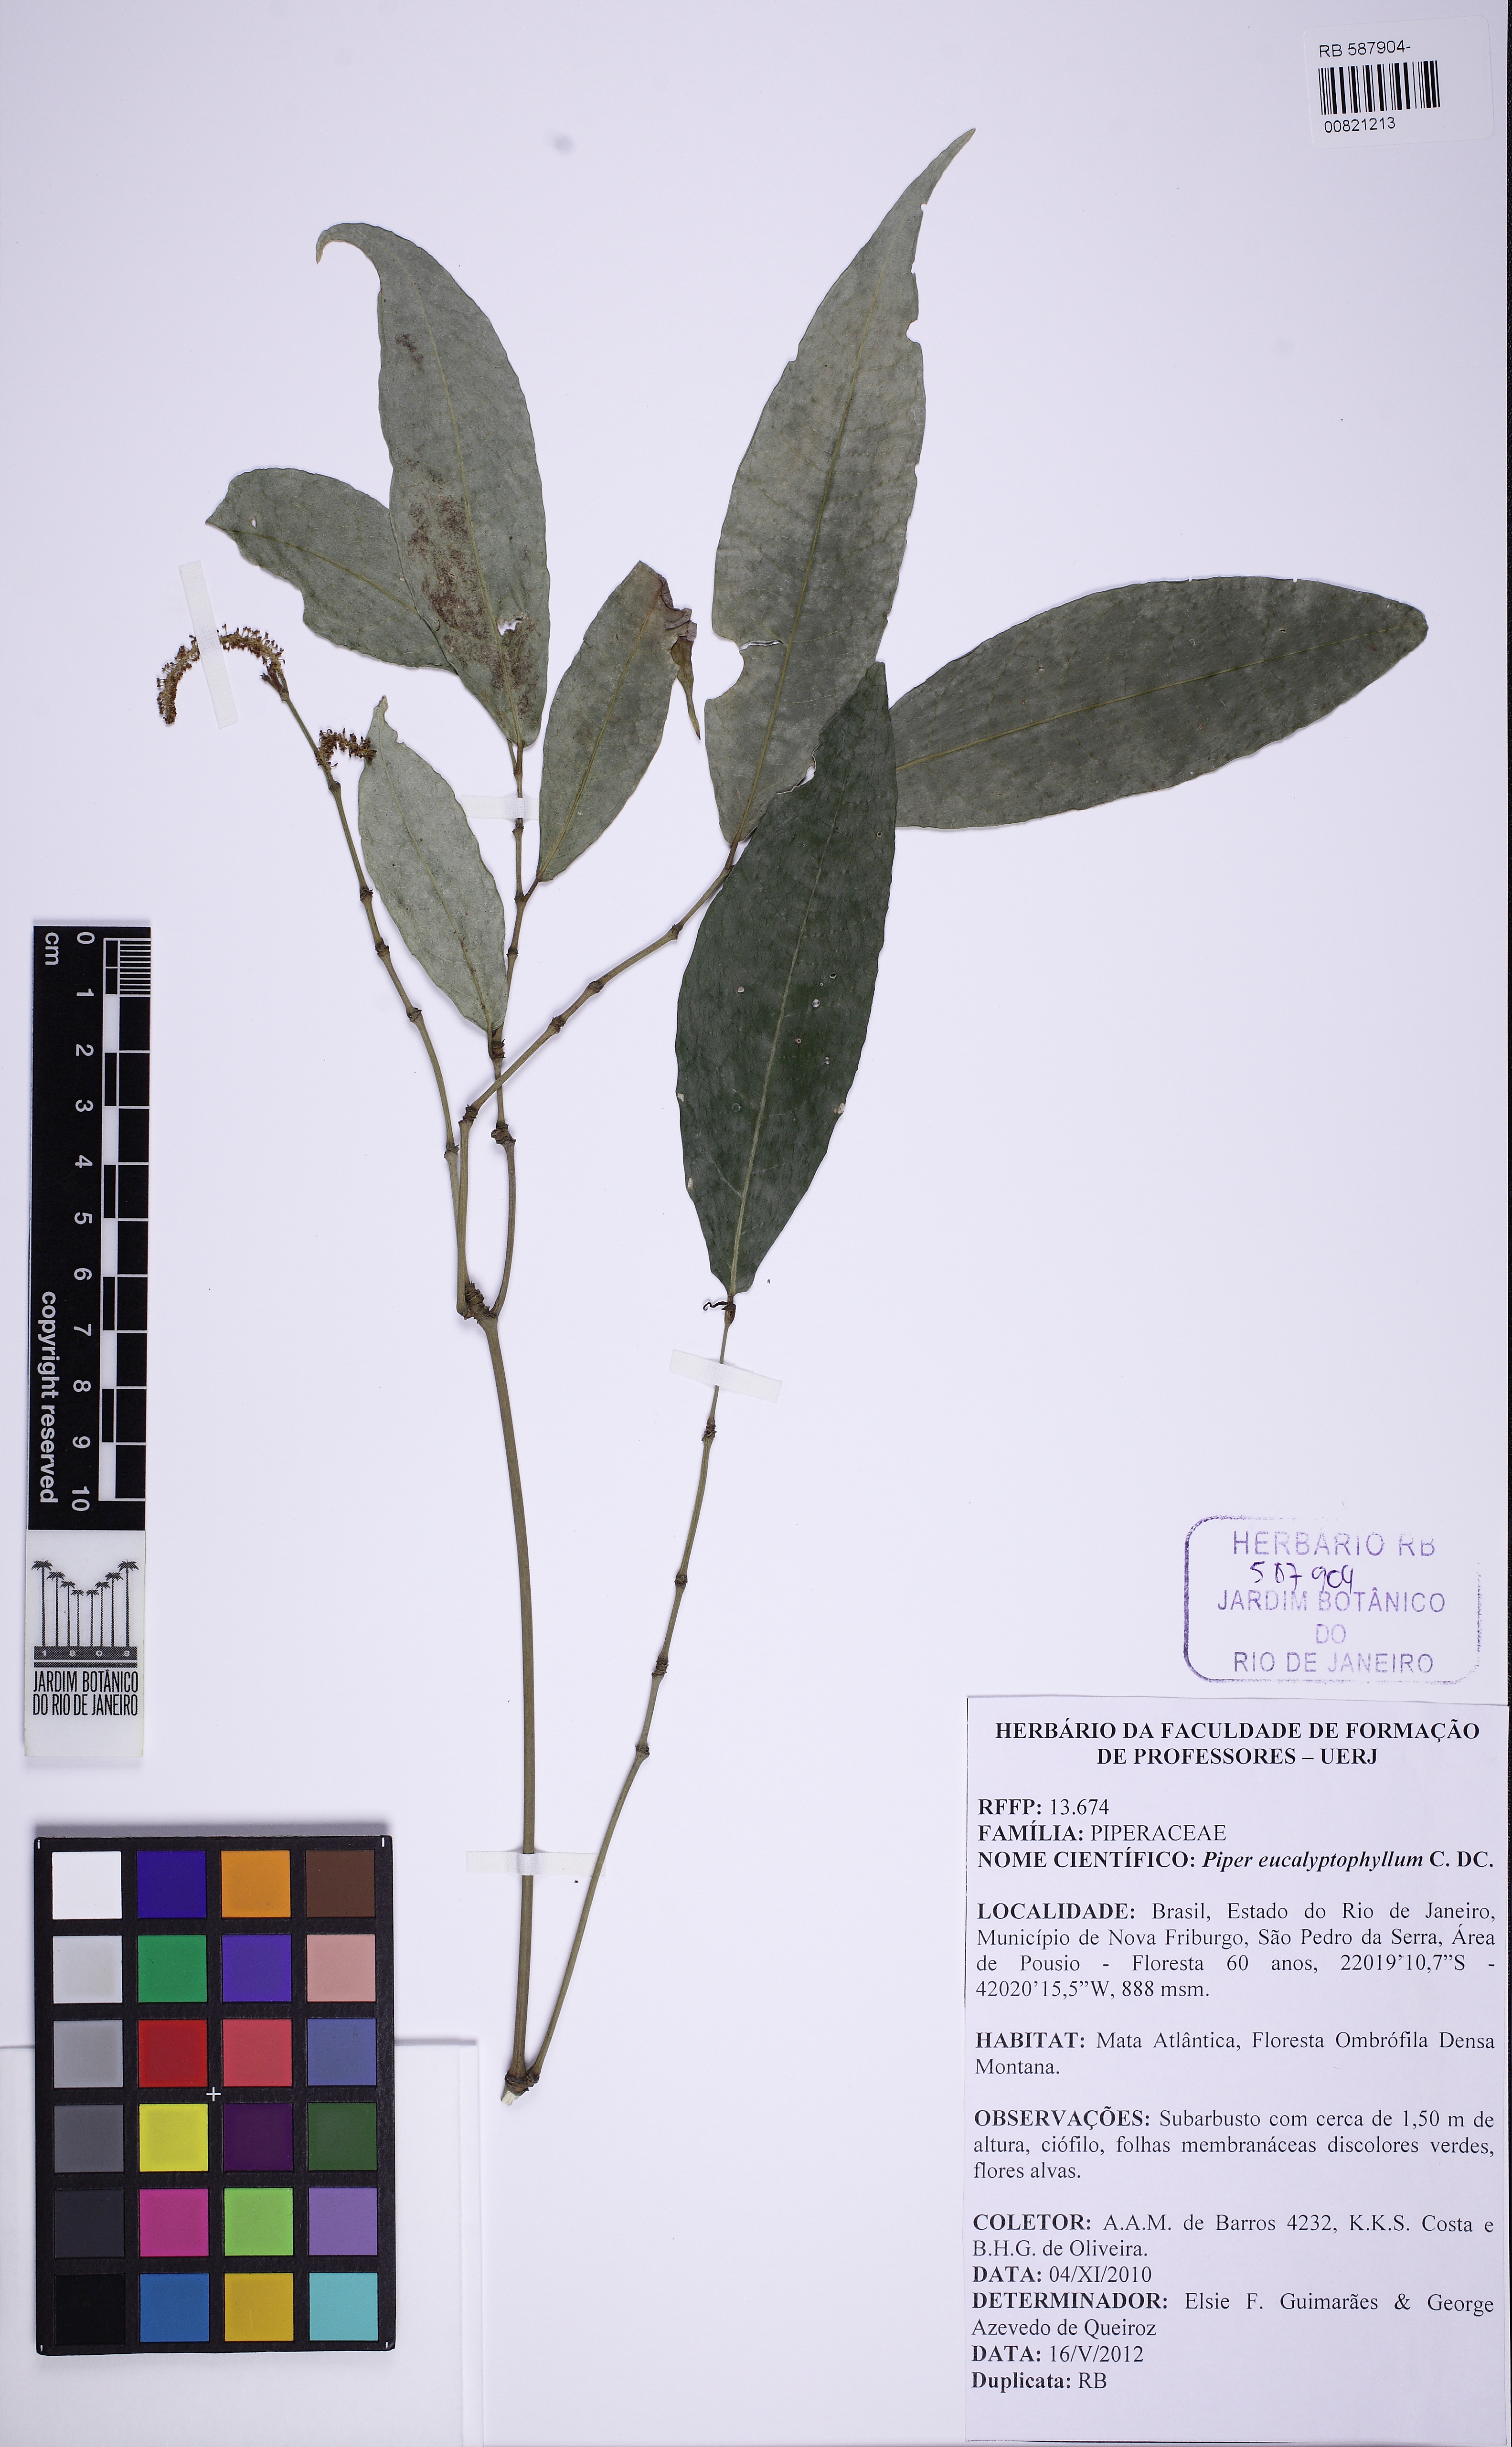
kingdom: Plantae
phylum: Tracheophyta
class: Magnoliopsida
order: Piperales
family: Piperaceae
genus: Piper
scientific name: Piper eucalyptiphyllum
